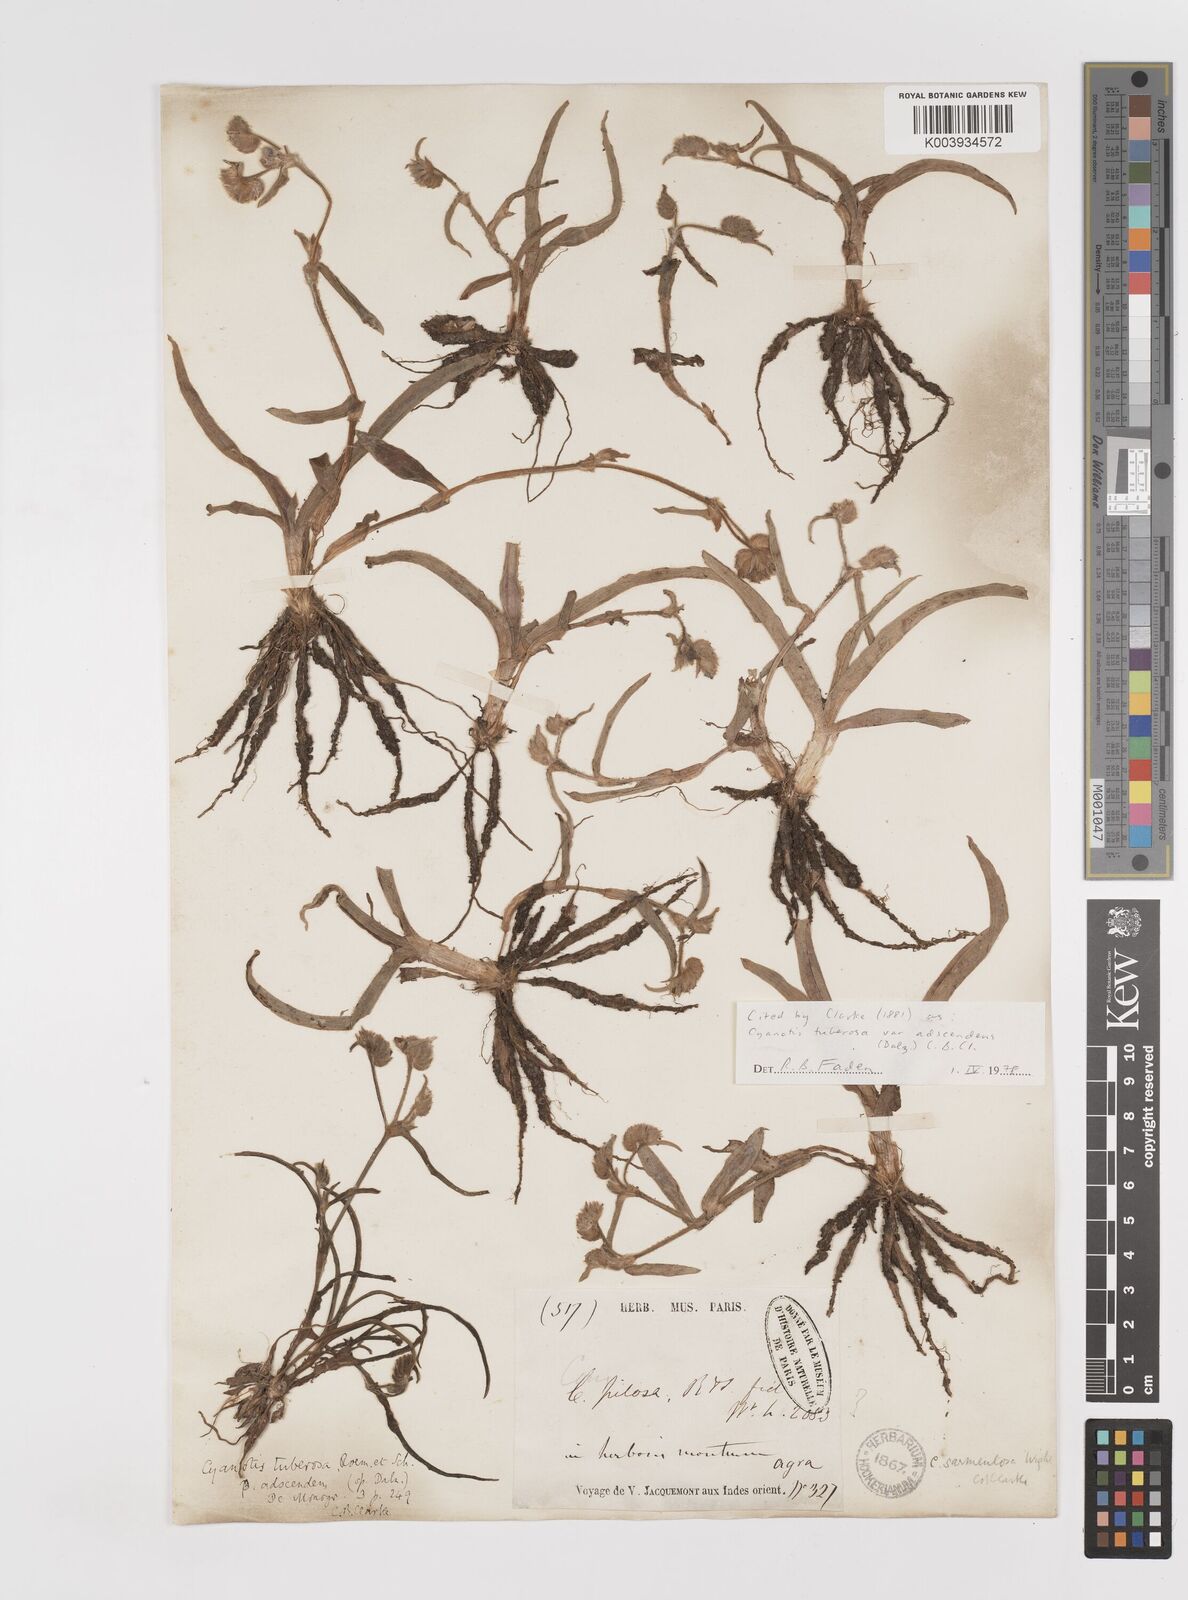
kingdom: Plantae
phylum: Tracheophyta
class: Liliopsida
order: Commelinales
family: Commelinaceae
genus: Cyanotis
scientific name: Cyanotis tuberosa
